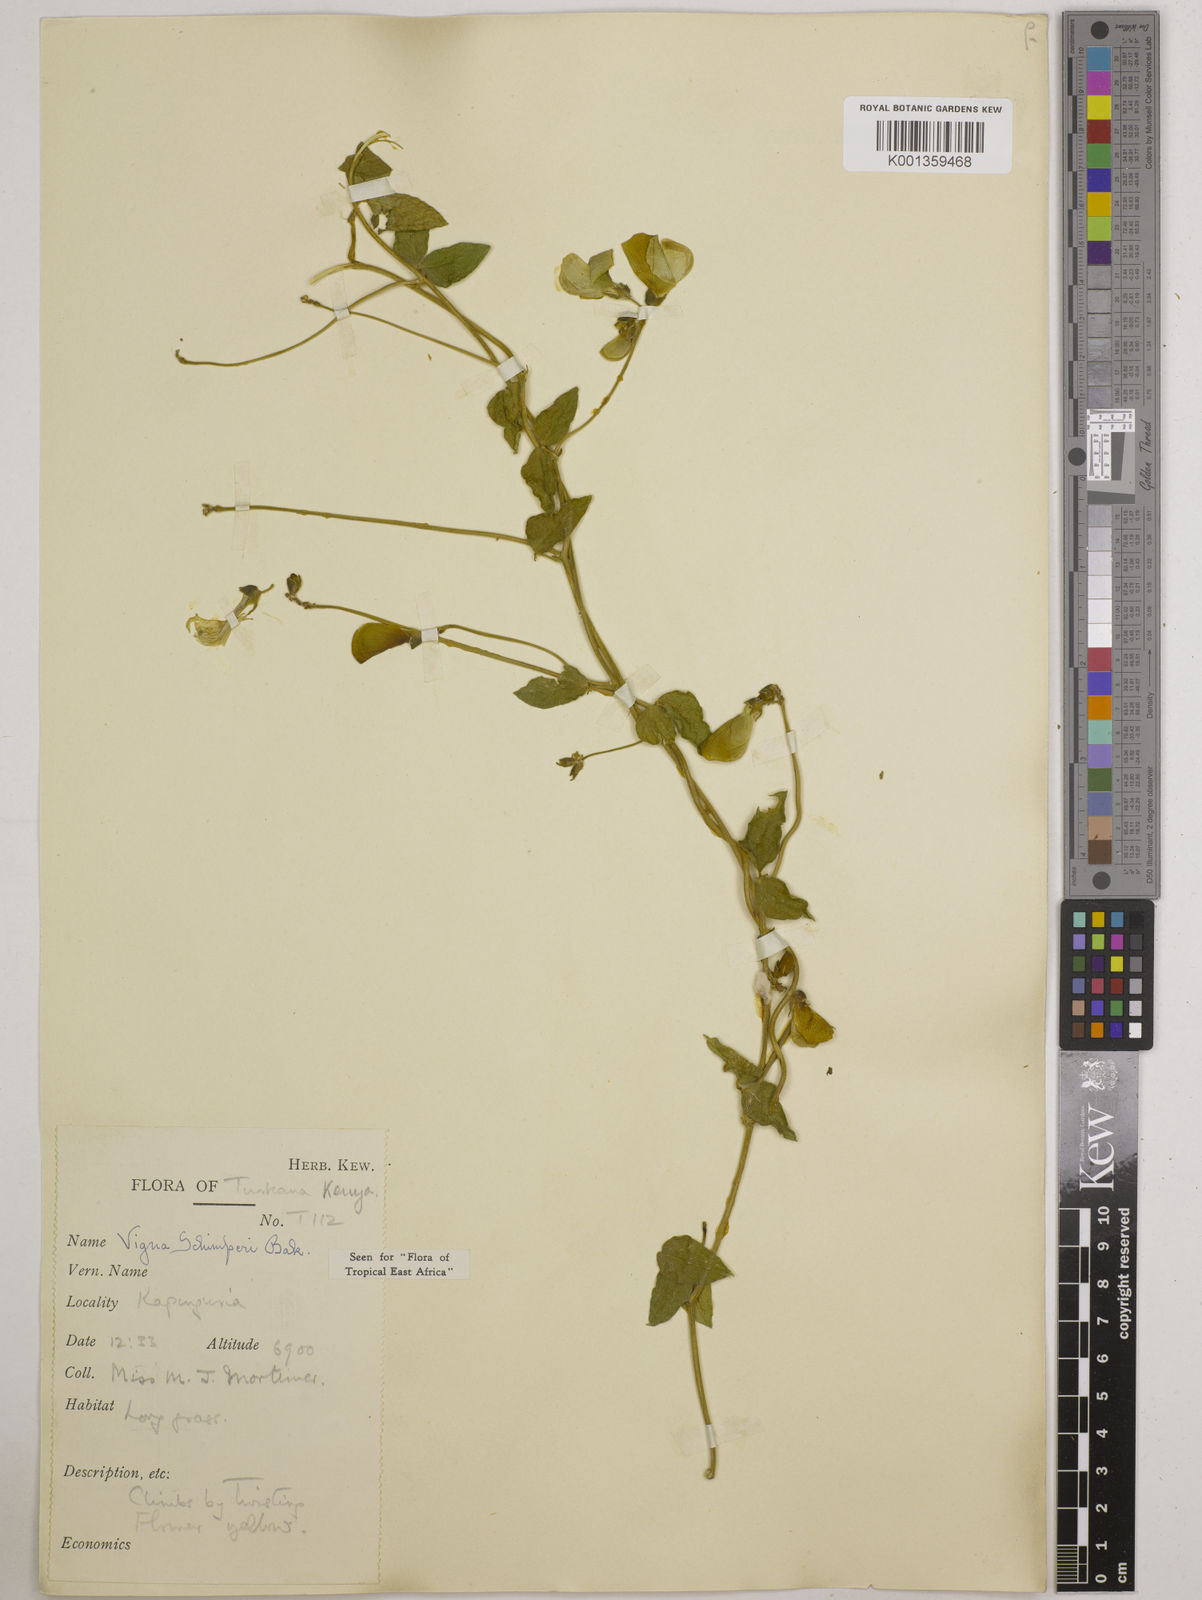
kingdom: Plantae
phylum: Tracheophyta
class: Magnoliopsida
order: Fabales
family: Fabaceae
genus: Vigna
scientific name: Vigna schimperi
